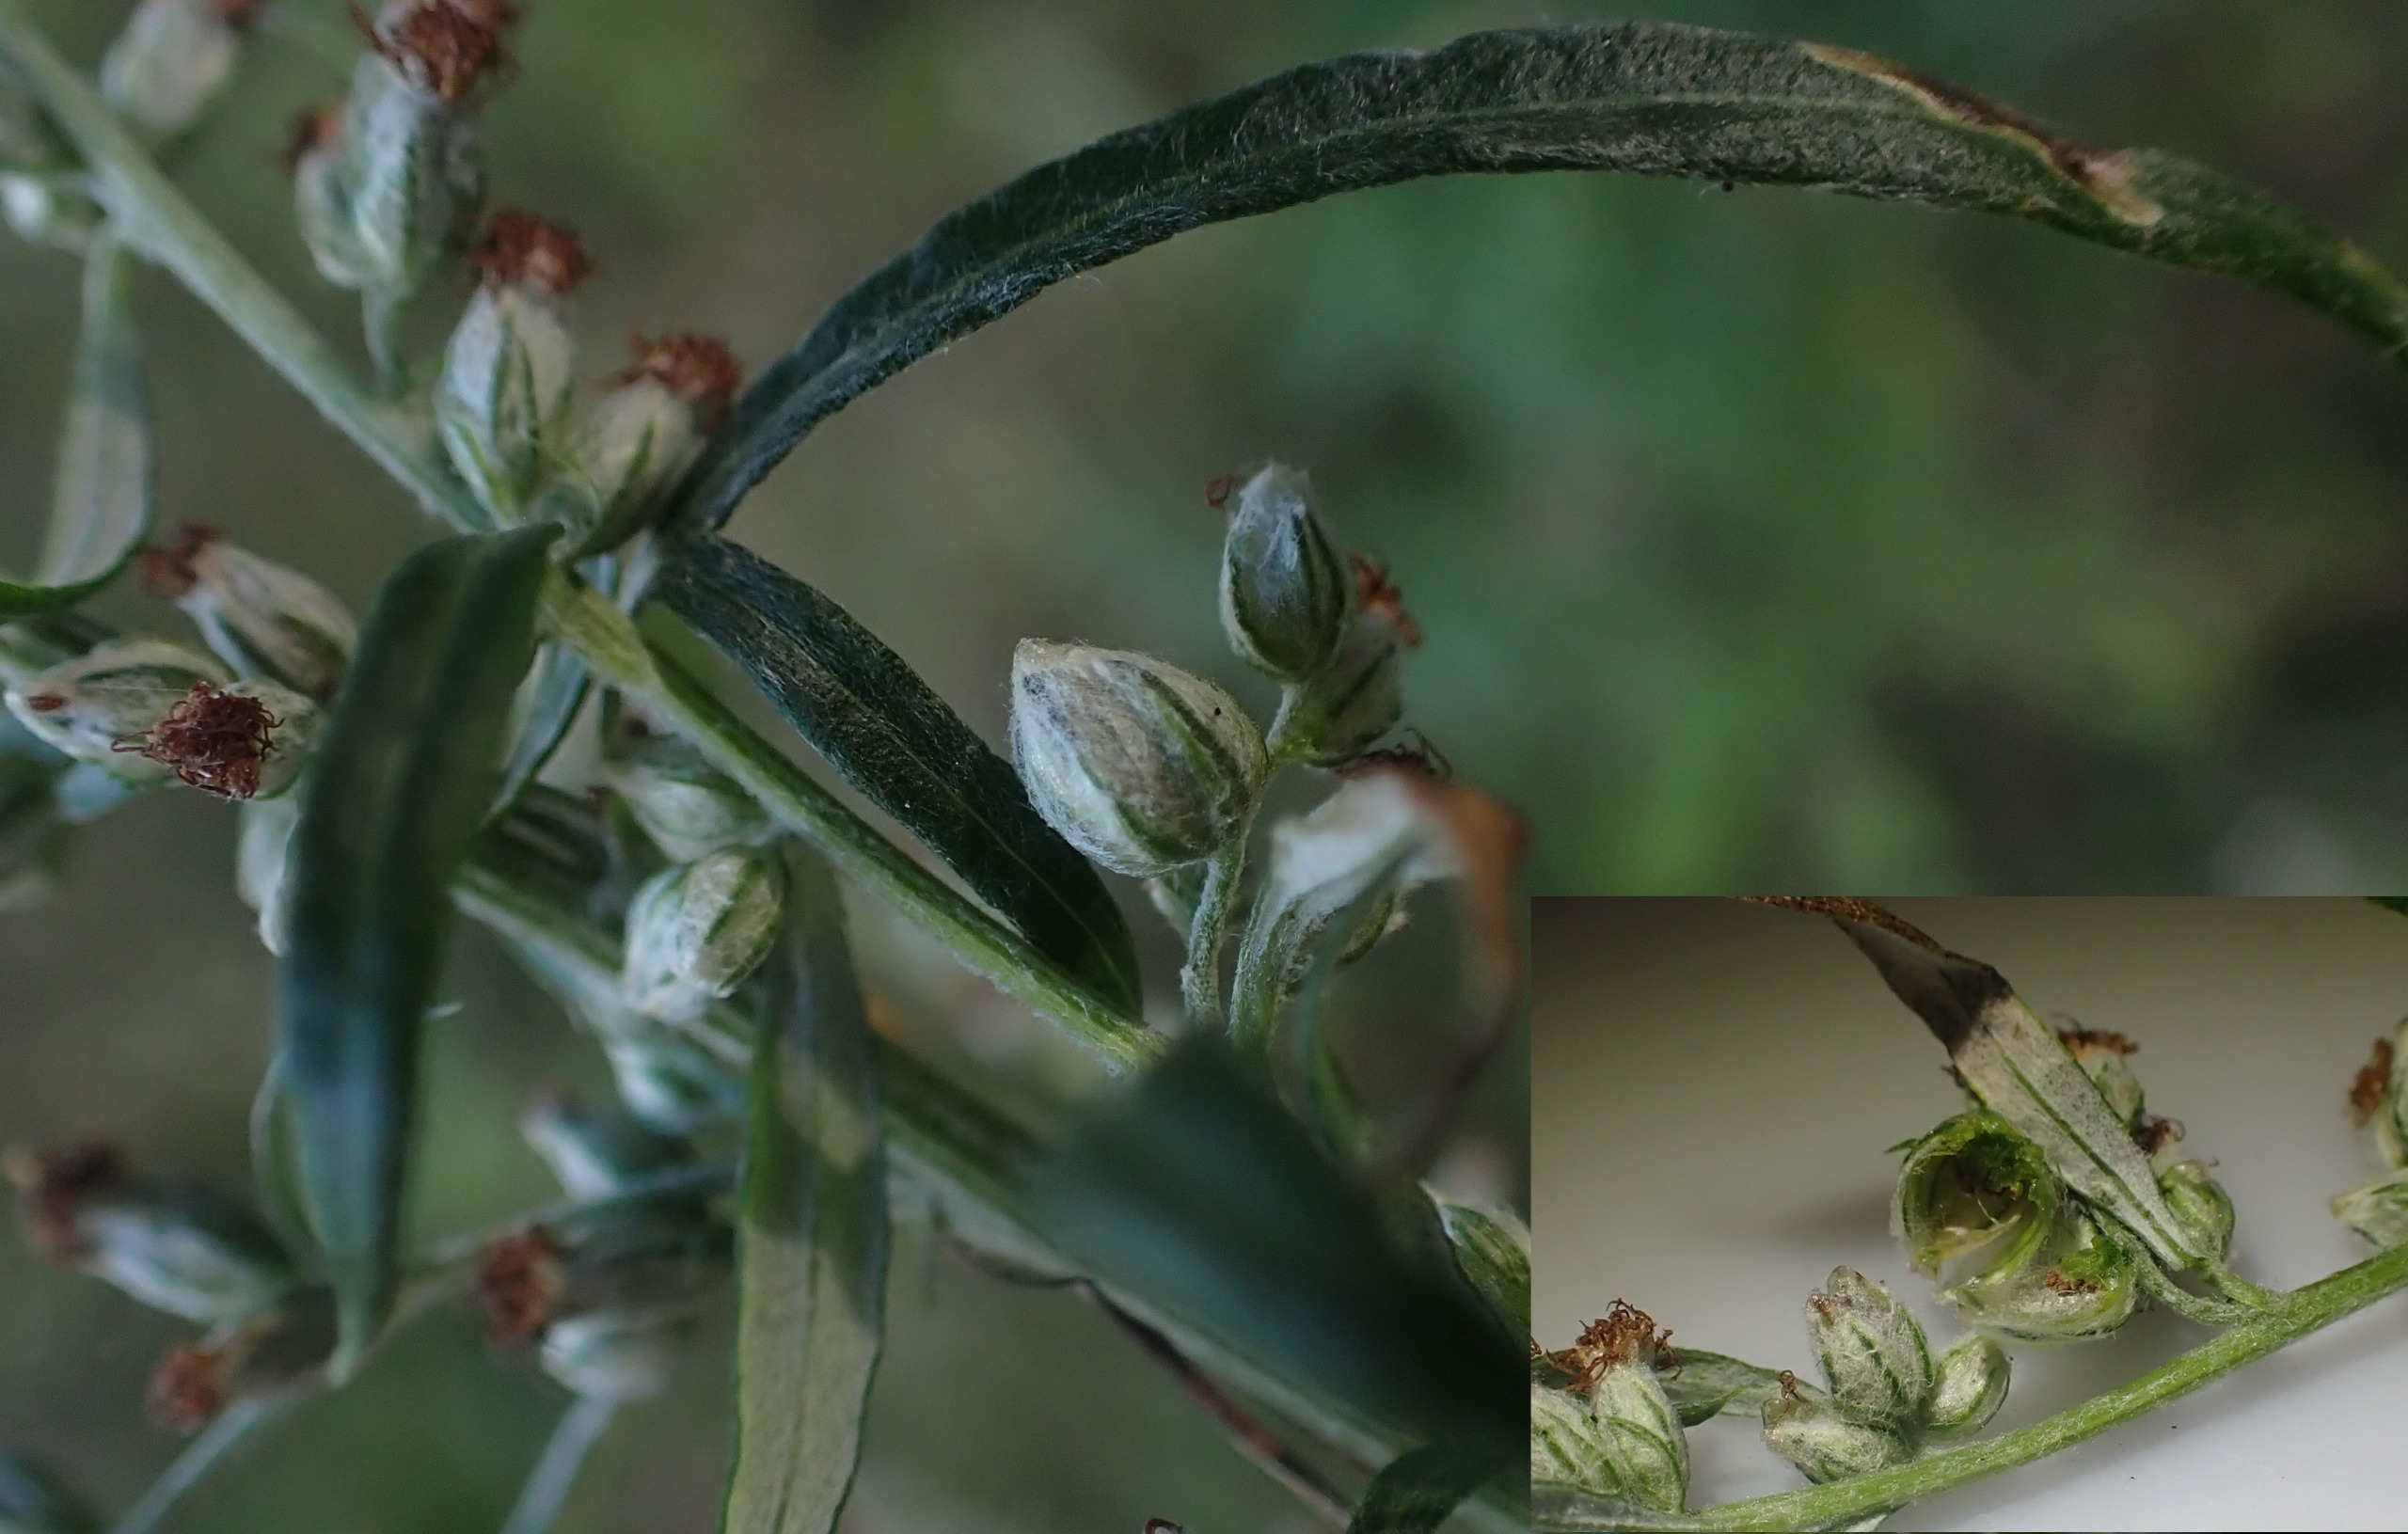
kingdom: Animalia
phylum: Arthropoda
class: Insecta
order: Diptera
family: Cecidomyiidae
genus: Ametrodiplosis
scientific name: Ametrodiplosis rudimentalis
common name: Bynkekurvgalmyg
